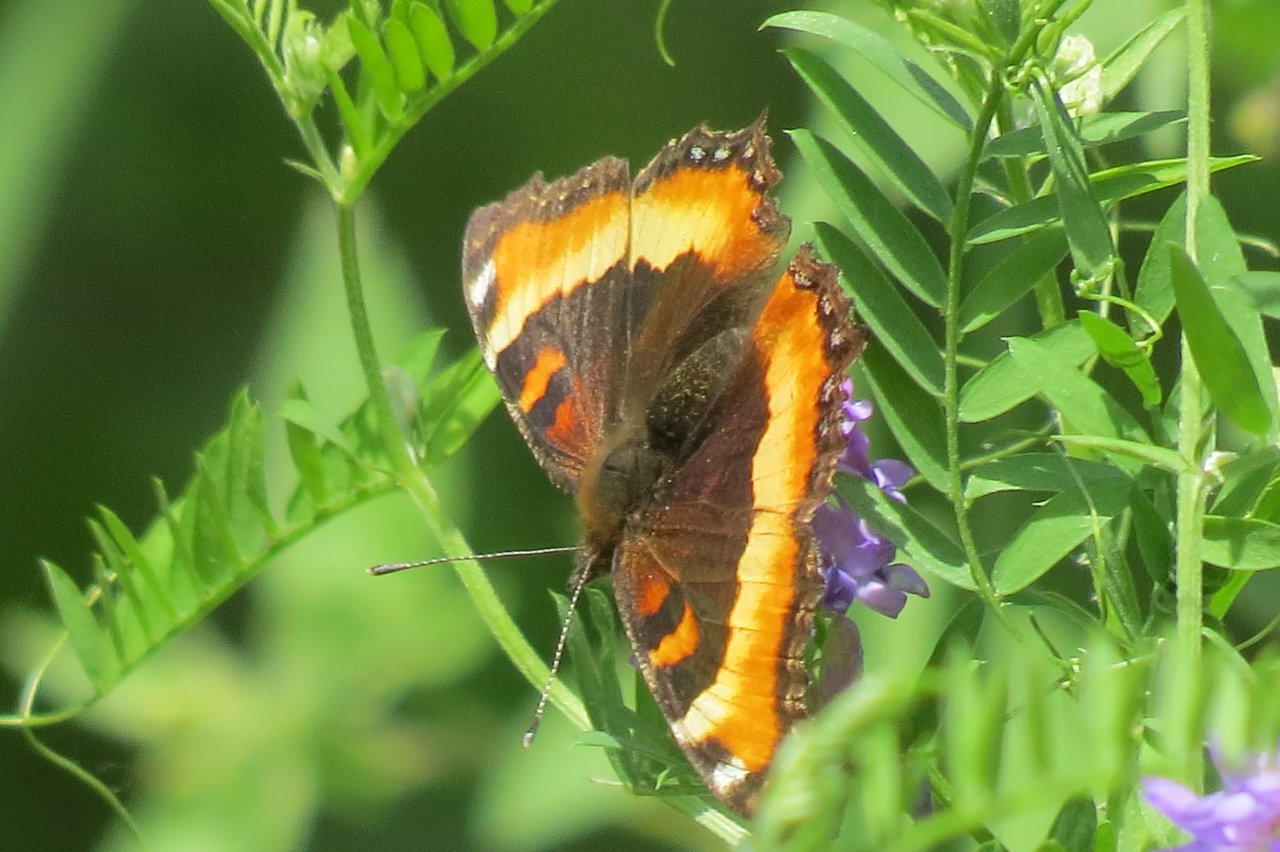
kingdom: Animalia
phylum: Arthropoda
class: Insecta
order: Lepidoptera
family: Nymphalidae
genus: Aglais
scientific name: Aglais milberti
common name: Milbert's Tortoiseshell
